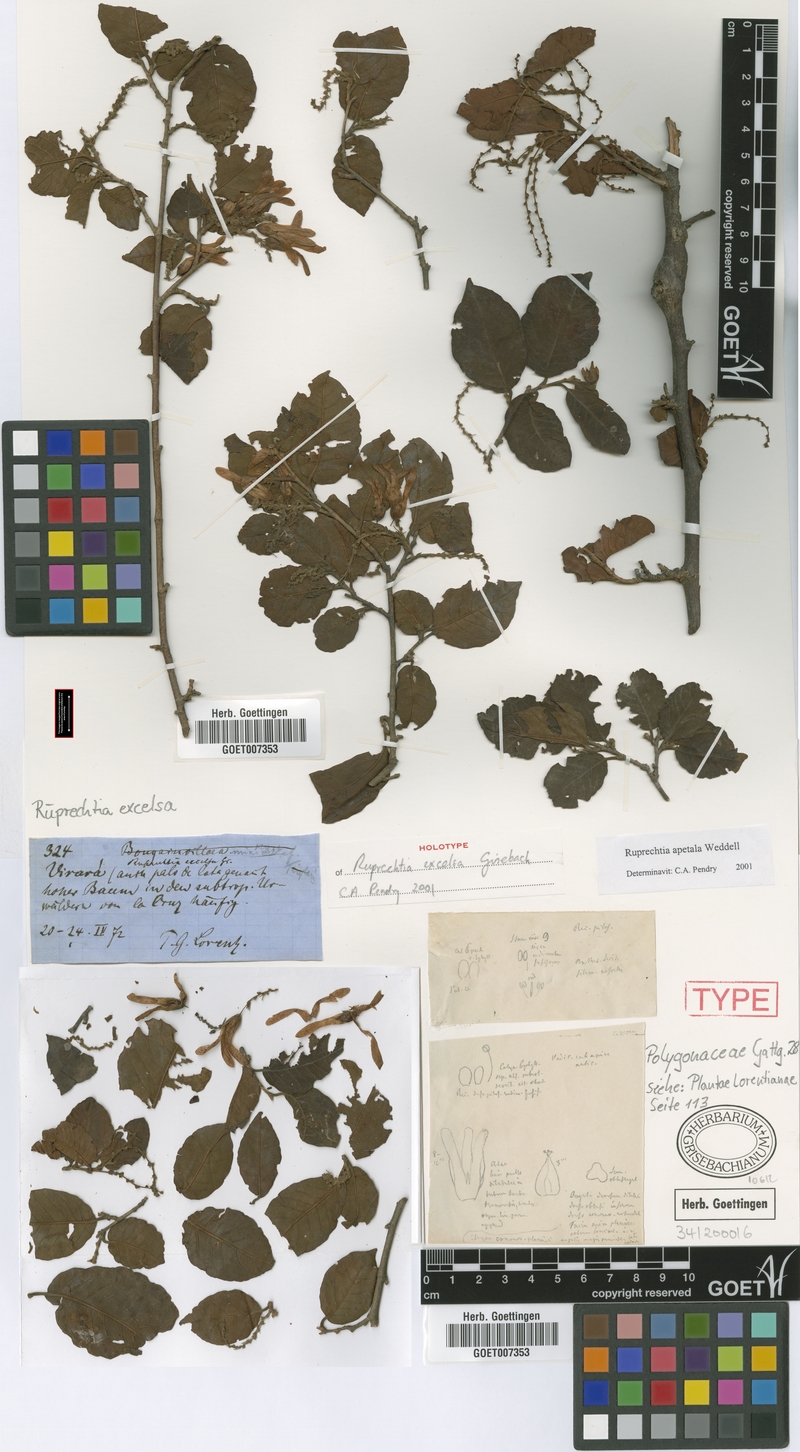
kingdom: Plantae
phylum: Tracheophyta
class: Magnoliopsida
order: Caryophyllales
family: Polygonaceae
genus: Ruprechtia
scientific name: Ruprechtia apetala
